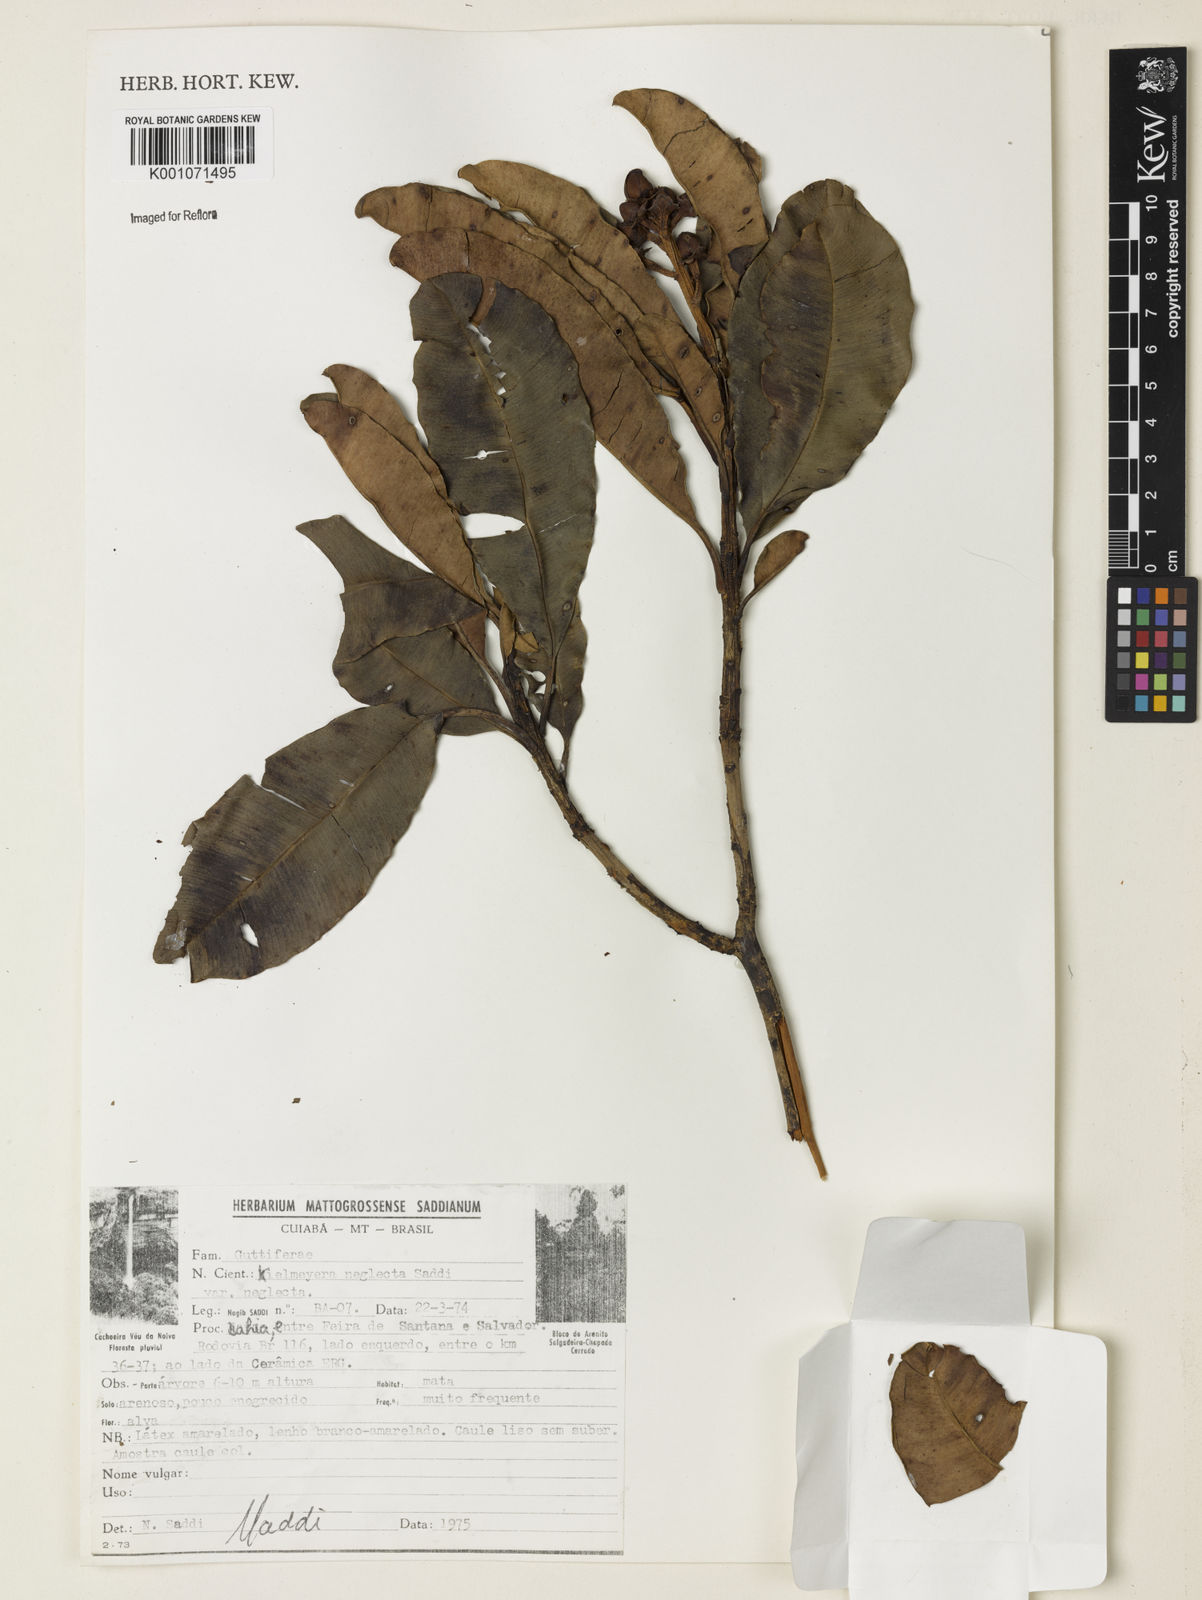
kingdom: Plantae
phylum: Tracheophyta
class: Magnoliopsida
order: Malpighiales
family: Calophyllaceae
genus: Kielmeyera
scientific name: Kielmeyera neglecta
